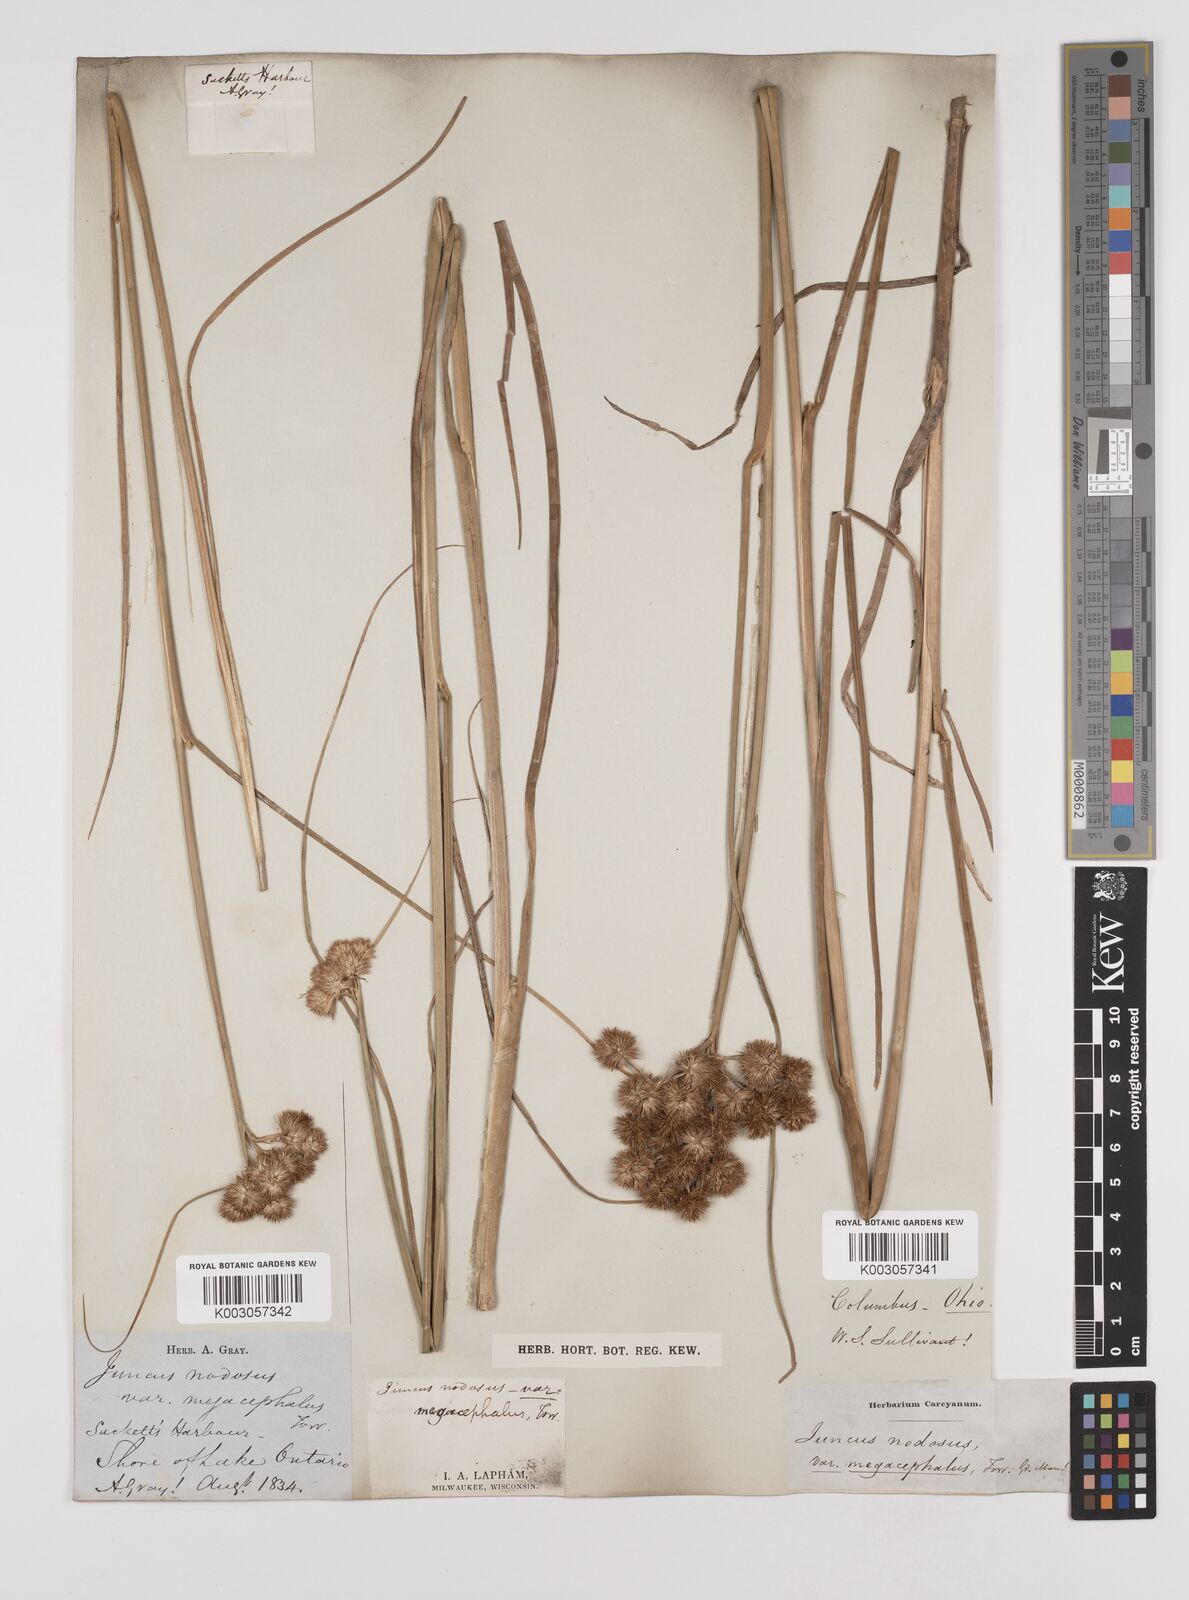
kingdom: Plantae
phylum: Tracheophyta
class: Liliopsida
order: Poales
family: Juncaceae
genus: Juncus
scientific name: Juncus nodosus
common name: Knotted rush
